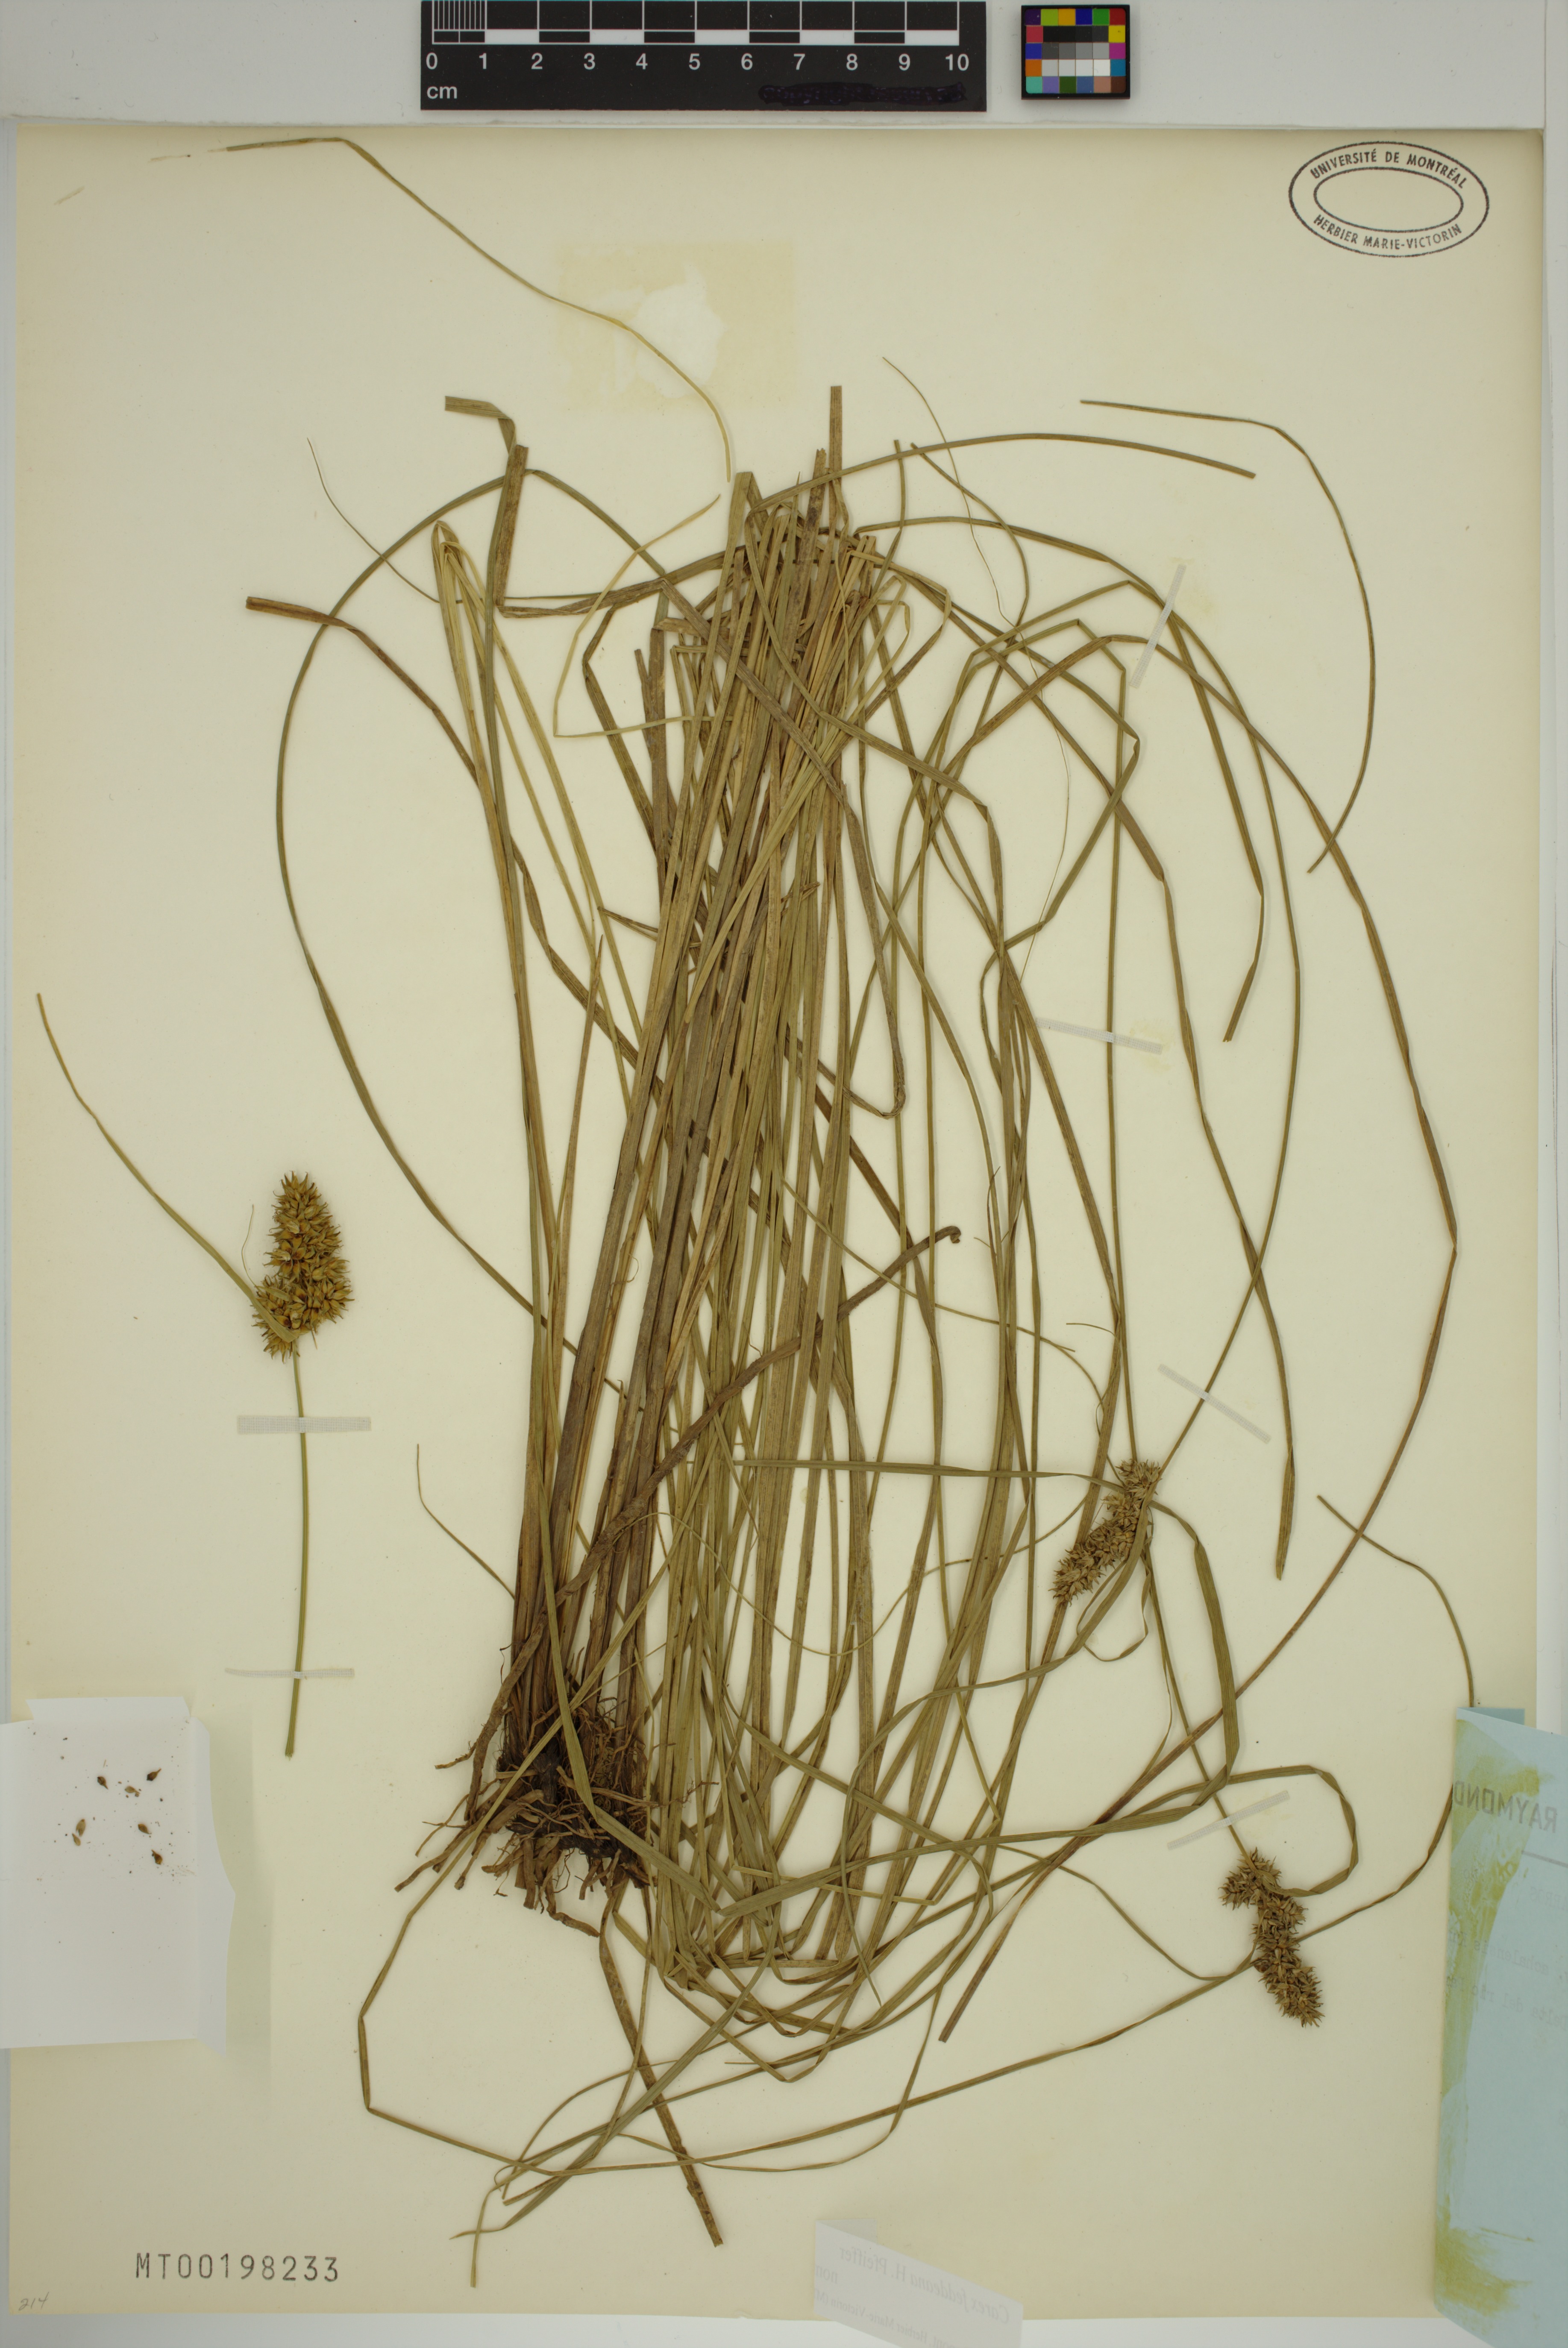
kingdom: Plantae
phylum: Tracheophyta
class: Liliopsida
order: Poales
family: Cyperaceae
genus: Carex
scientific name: Carex feddeana
